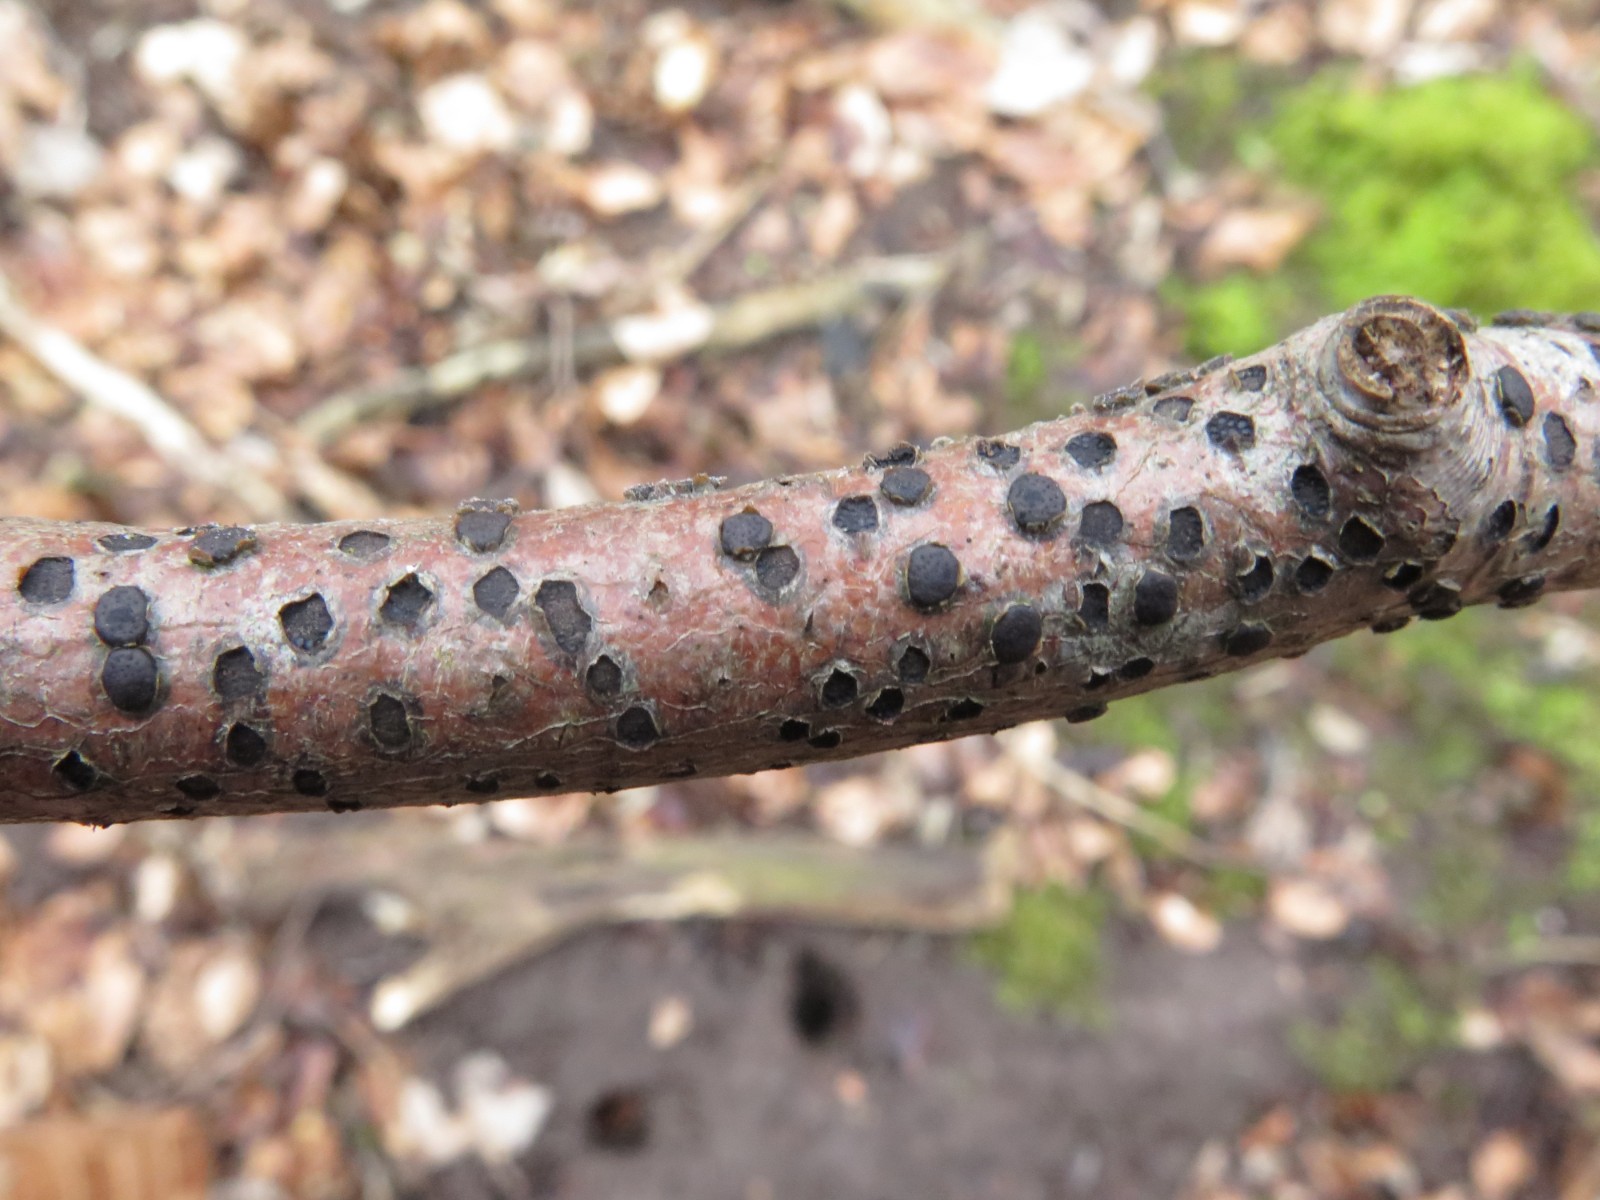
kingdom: Fungi
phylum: Ascomycota
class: Sordariomycetes
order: Xylariales
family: Diatrypaceae
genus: Diatrype
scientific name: Diatrype disciformis
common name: kant-kulskorpe
